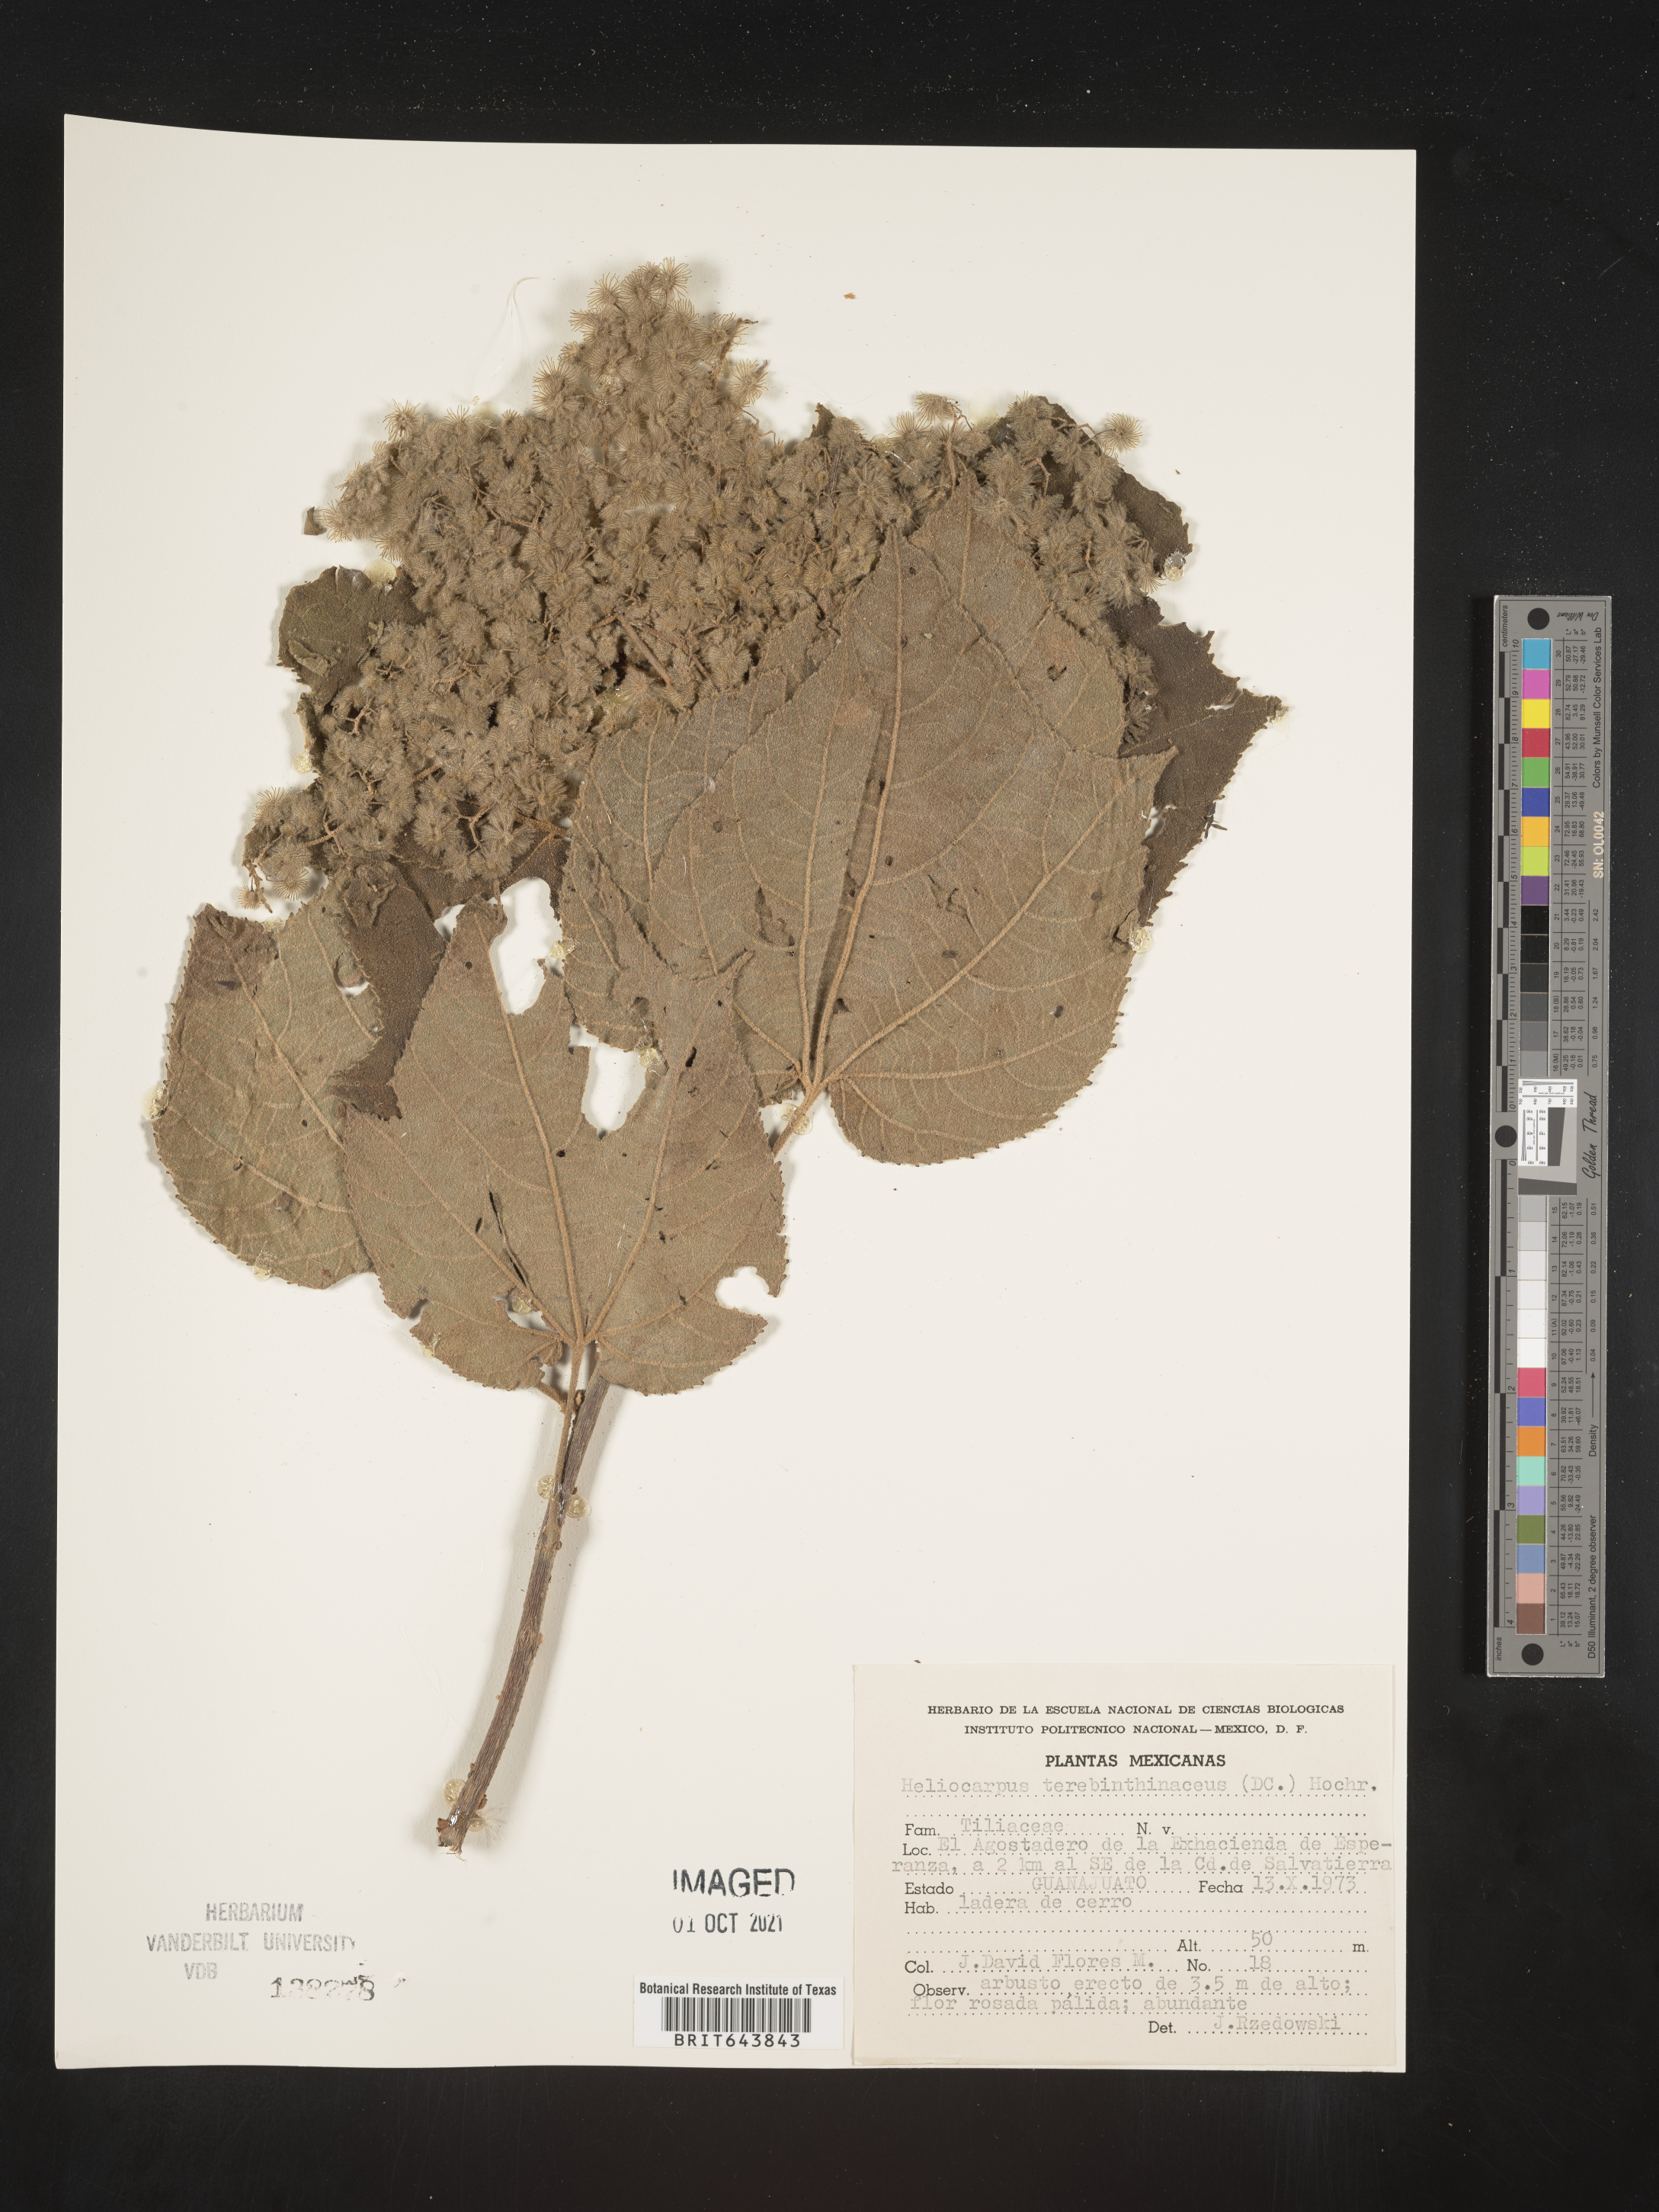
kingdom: Plantae
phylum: Tracheophyta
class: Magnoliopsida
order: Malvales
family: Malvaceae
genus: Heliocarpus
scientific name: Heliocarpus
